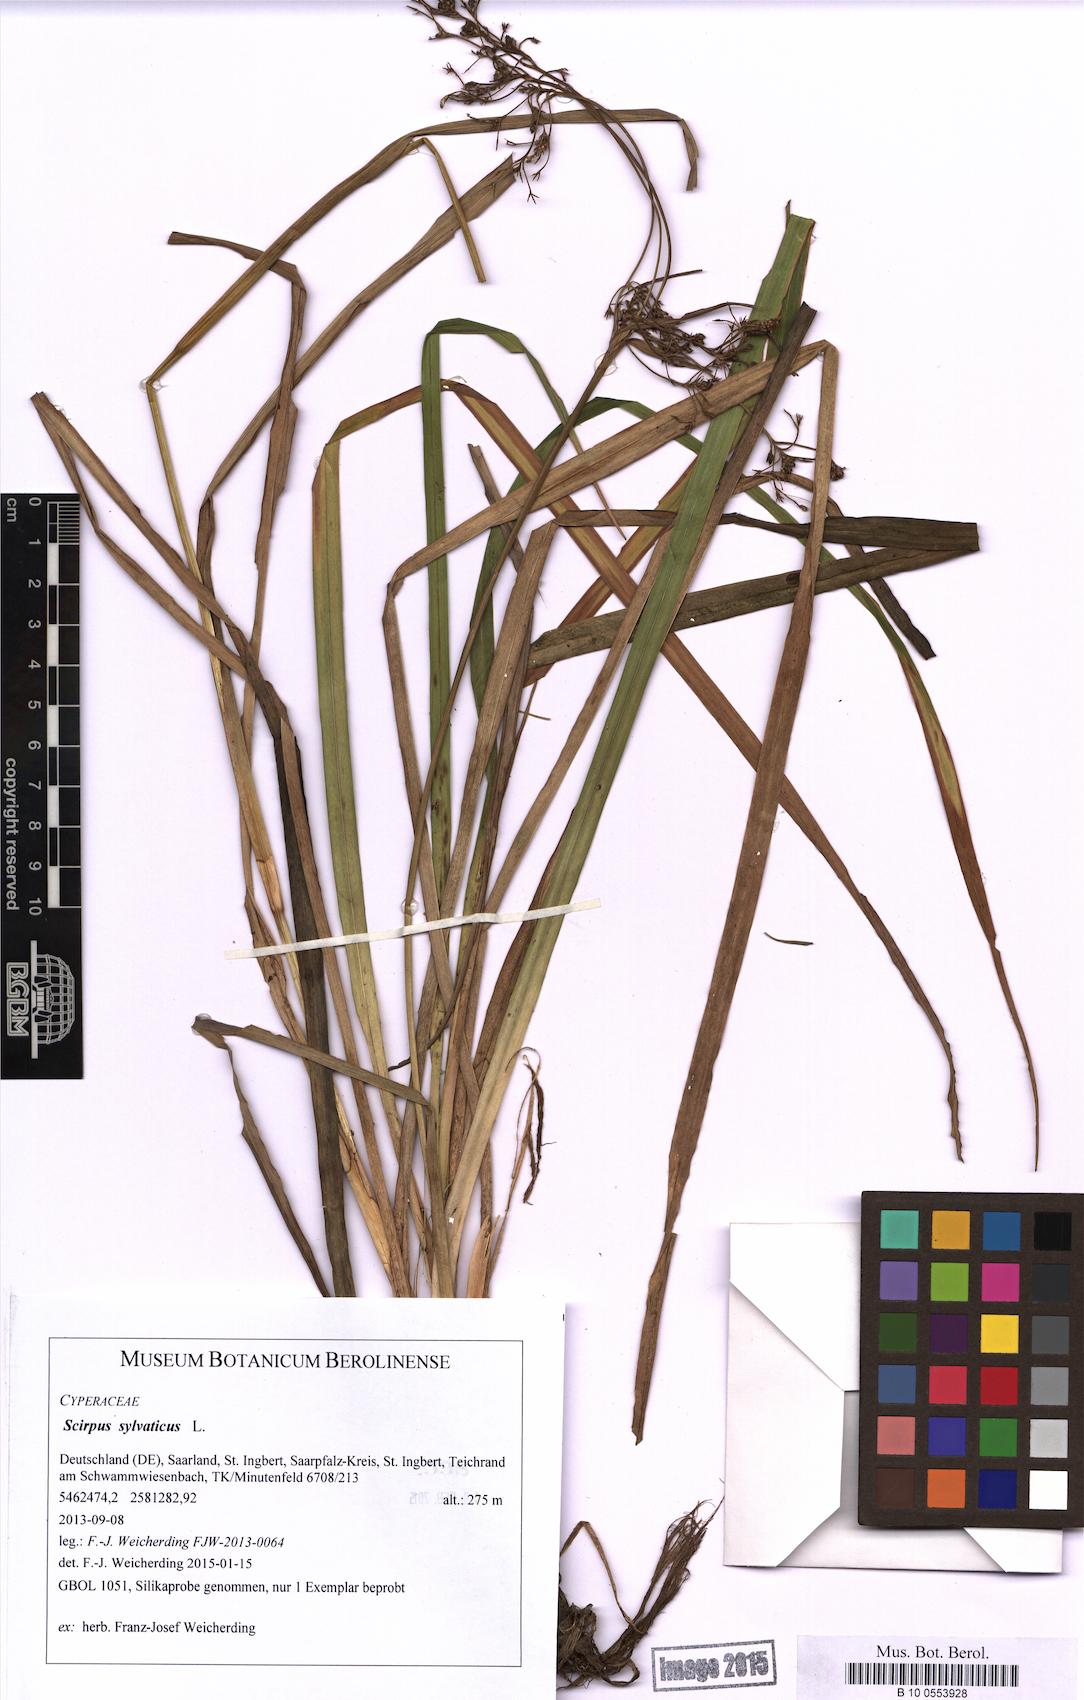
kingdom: Plantae
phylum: Tracheophyta
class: Liliopsida
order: Poales
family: Cyperaceae
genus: Scirpus
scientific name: Scirpus sylvaticus
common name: Wood club-rush
